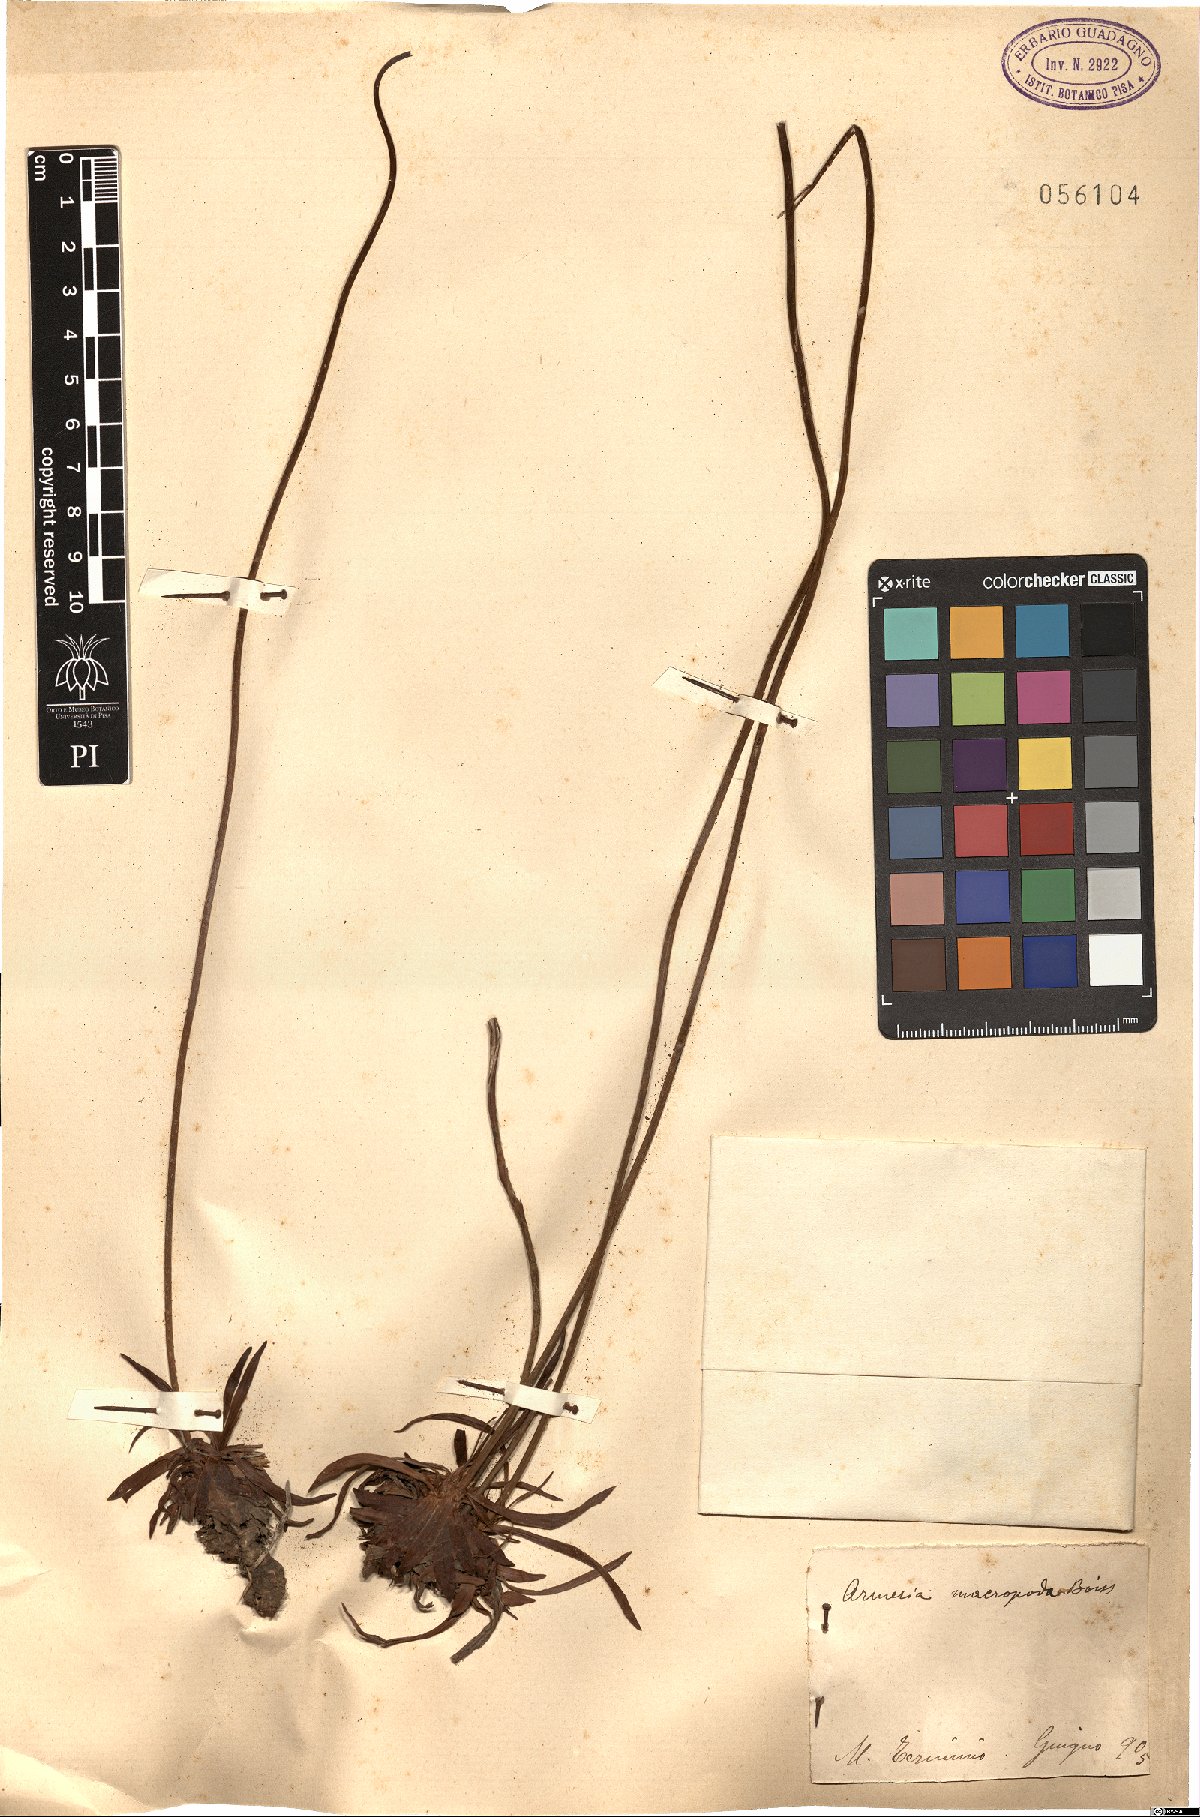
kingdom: Plantae
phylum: Tracheophyta
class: Magnoliopsida
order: Caryophyllales
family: Plumbaginaceae
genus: Armeria
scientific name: Armeria macropoda
